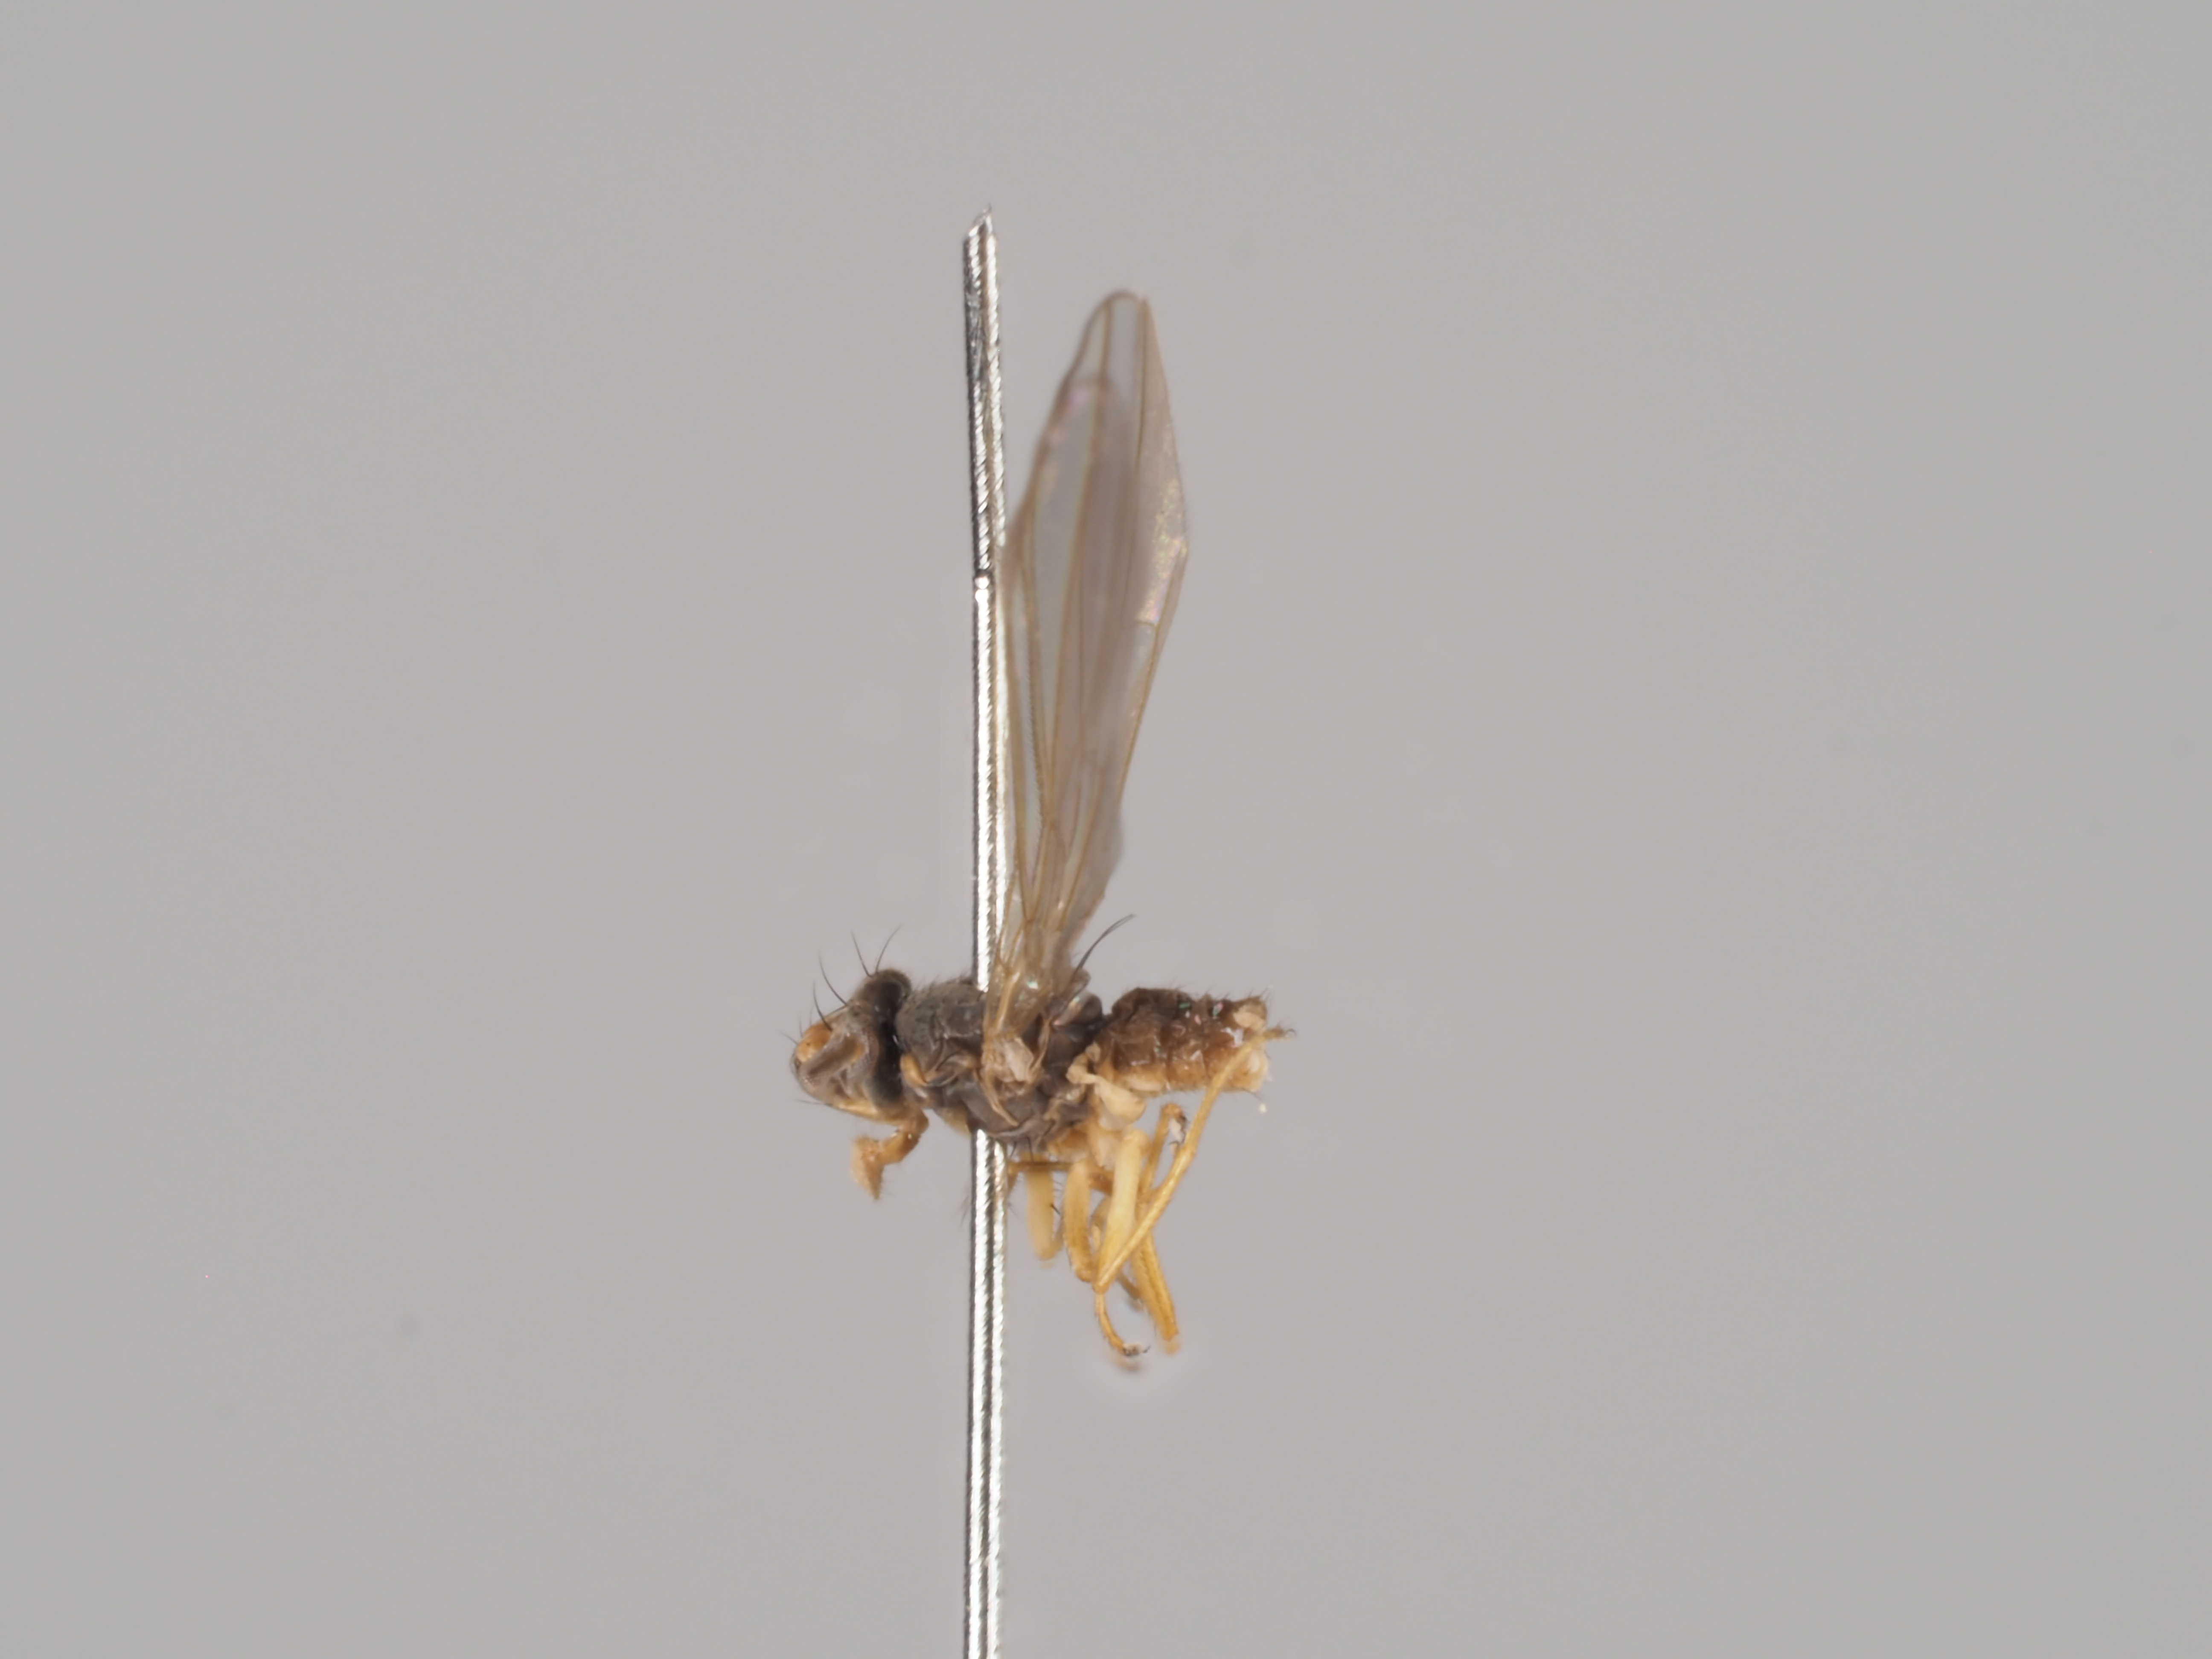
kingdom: Animalia
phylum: Arthropoda
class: Insecta
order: Diptera
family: Anthomyzidae
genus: Anthomyza
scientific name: Anthomyza anderssoni
